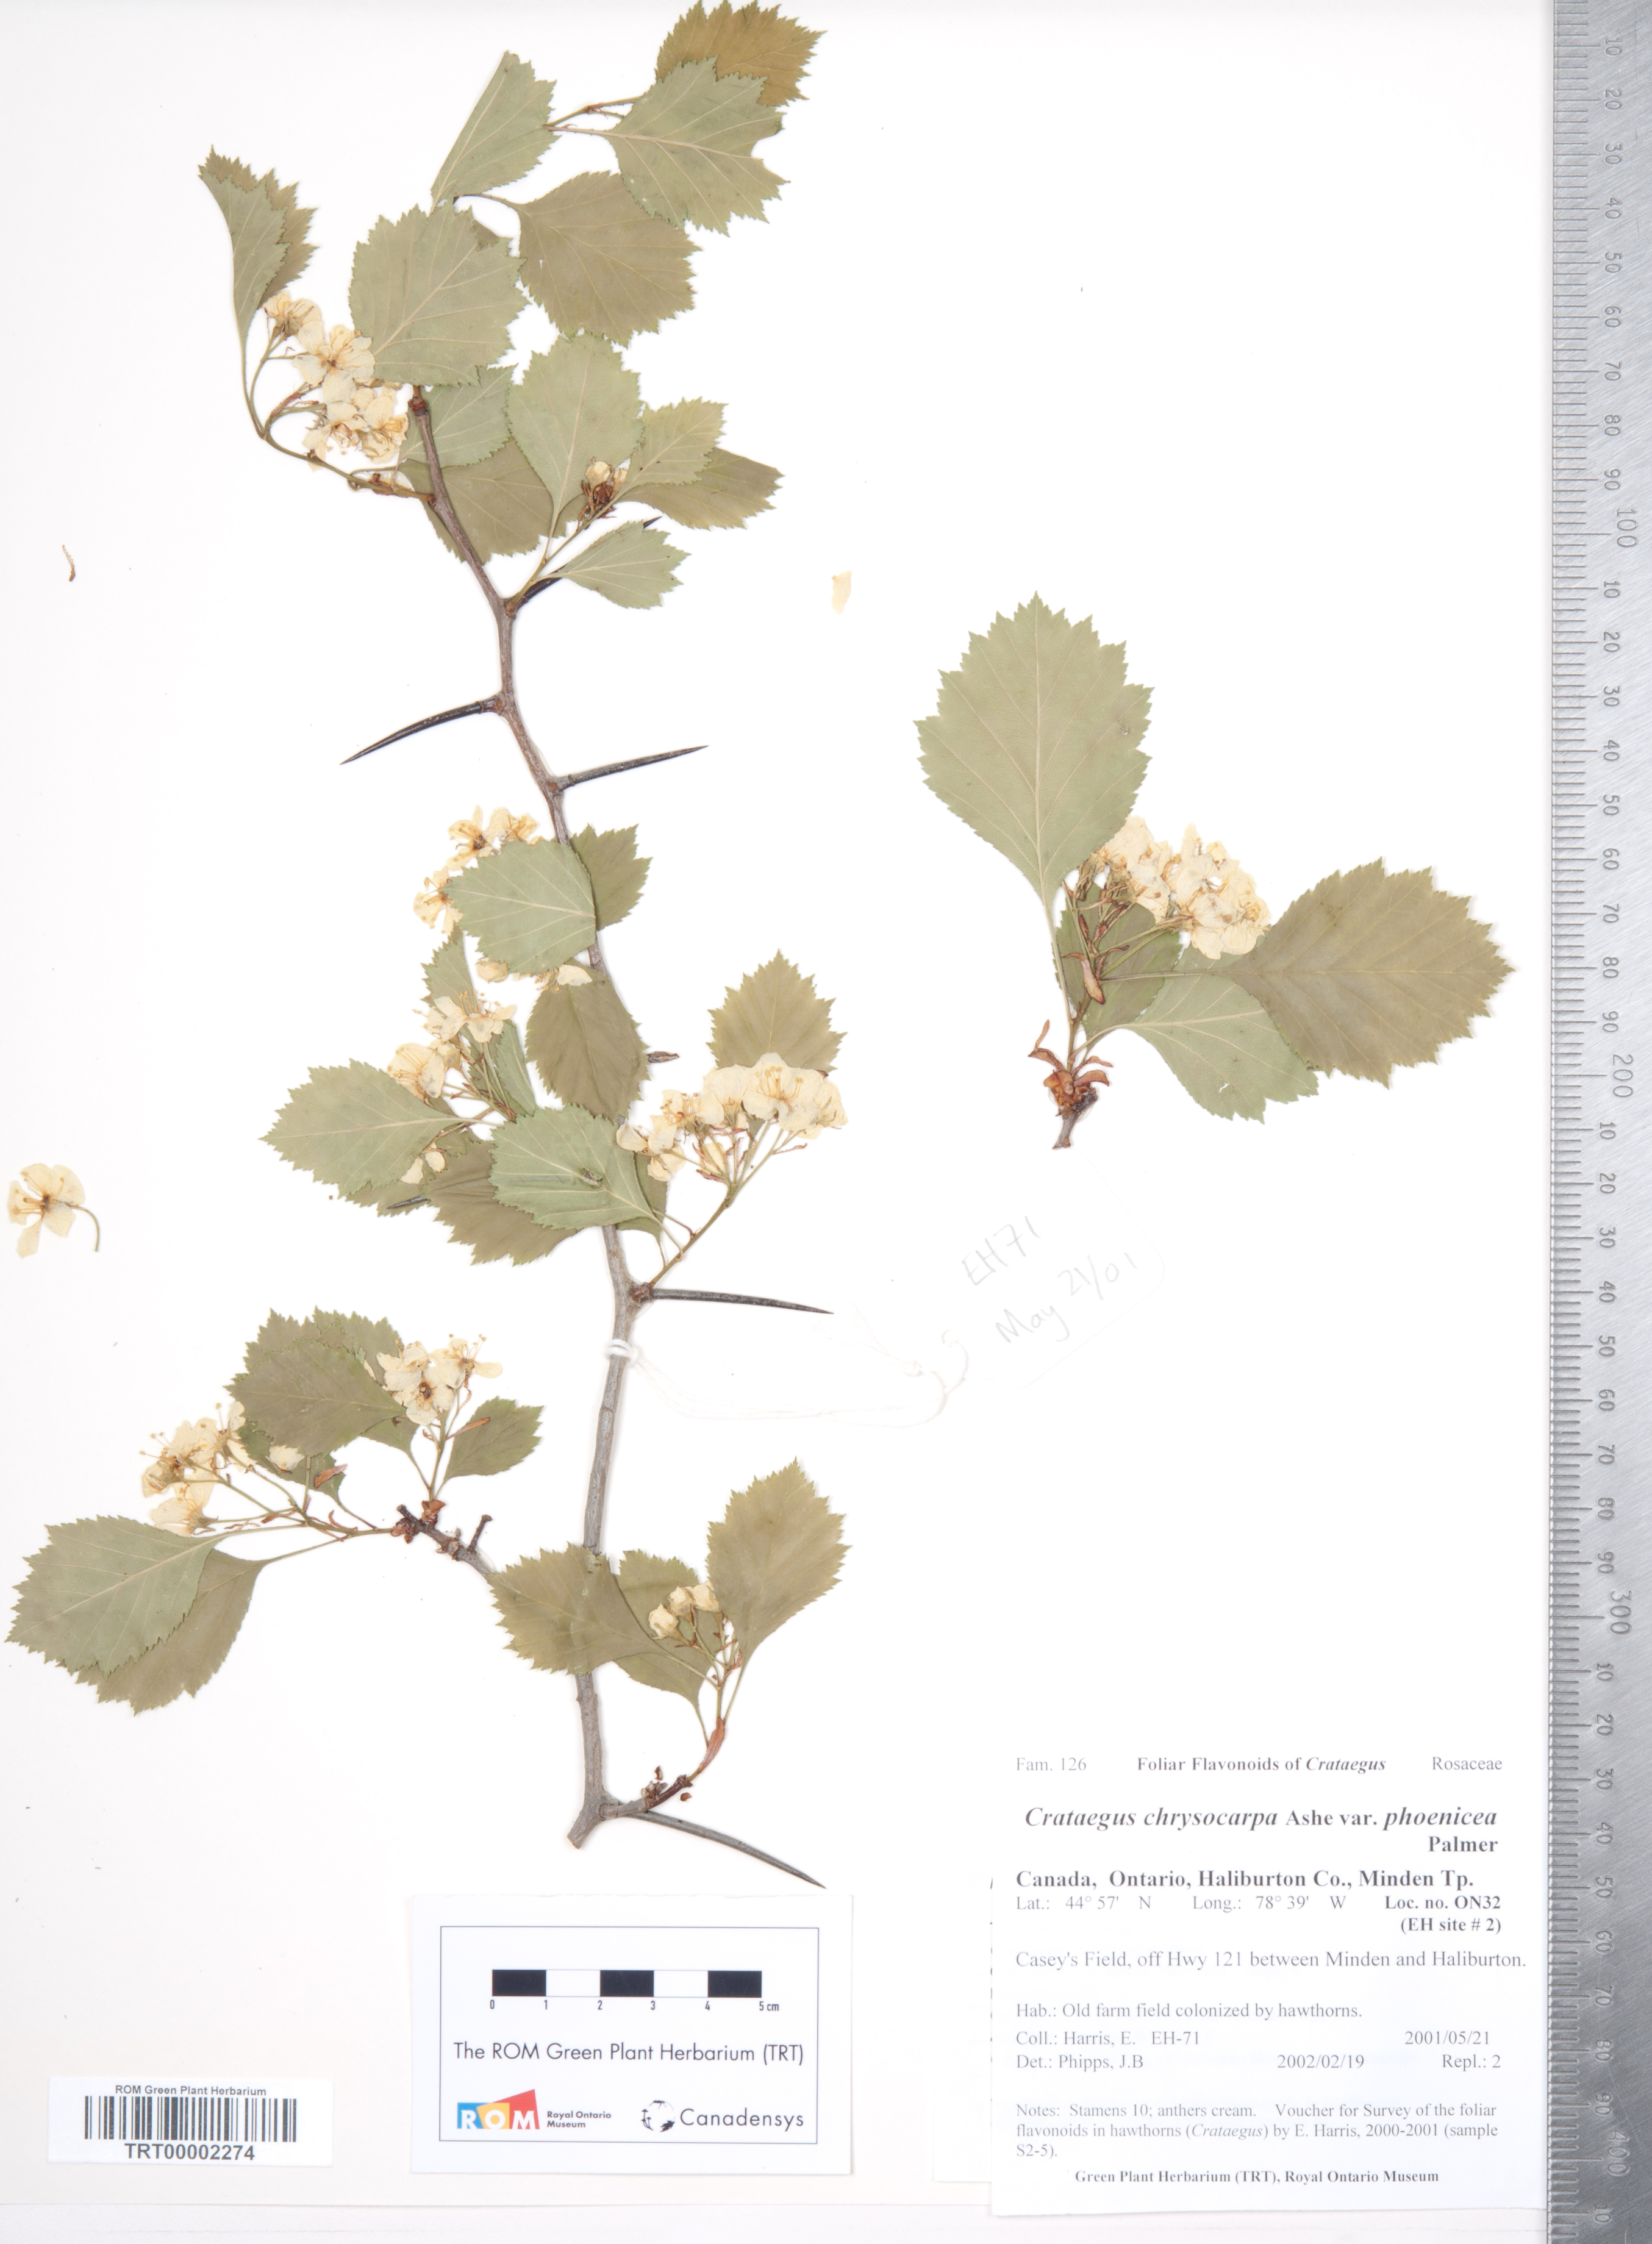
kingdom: Plantae
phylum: Tracheophyta
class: Magnoliopsida
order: Rosales
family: Rosaceae
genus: Crataegus
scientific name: Crataegus chrysocarpa
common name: Fire-berry hawthorn
